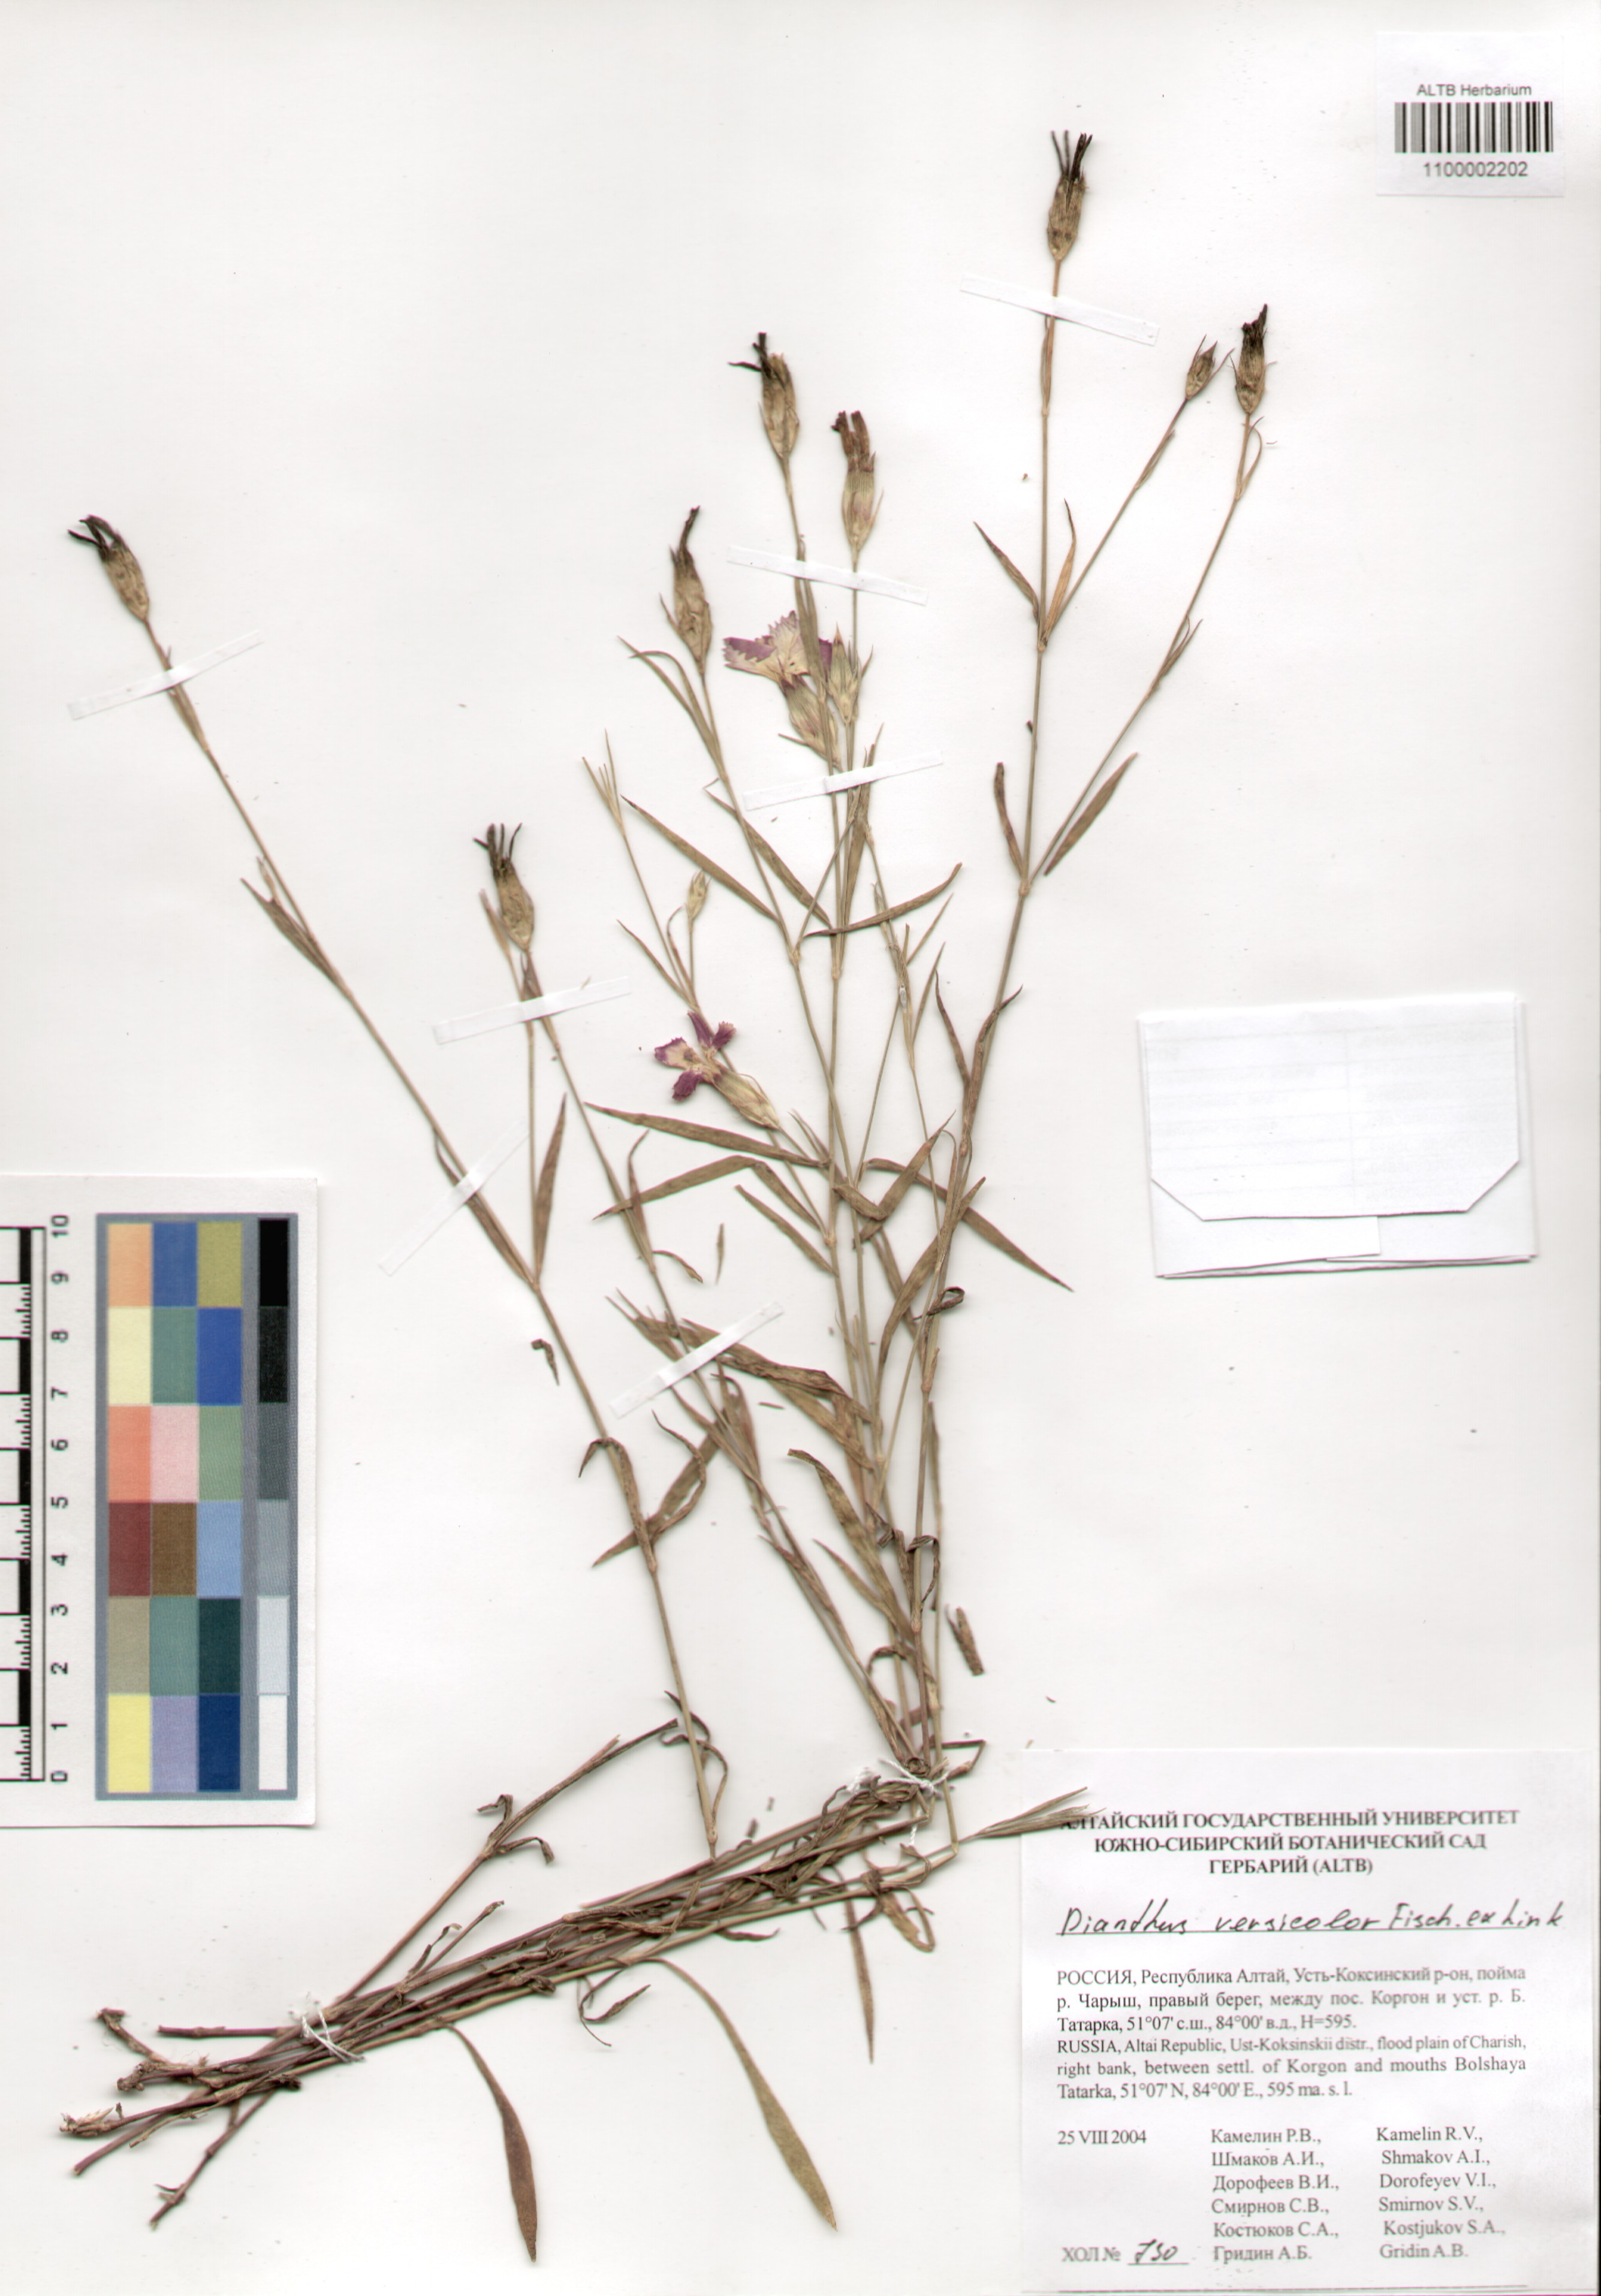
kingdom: Plantae
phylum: Tracheophyta
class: Magnoliopsida
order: Caryophyllales
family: Caryophyllaceae
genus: Dianthus
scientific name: Dianthus chinensis
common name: Rainbow pink
